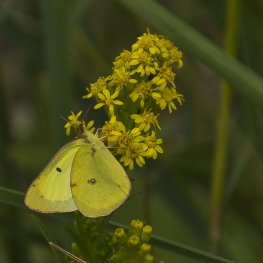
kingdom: Animalia
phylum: Arthropoda
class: Insecta
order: Lepidoptera
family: Pieridae
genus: Colias
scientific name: Colias philodice
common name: Clouded Sulphur
